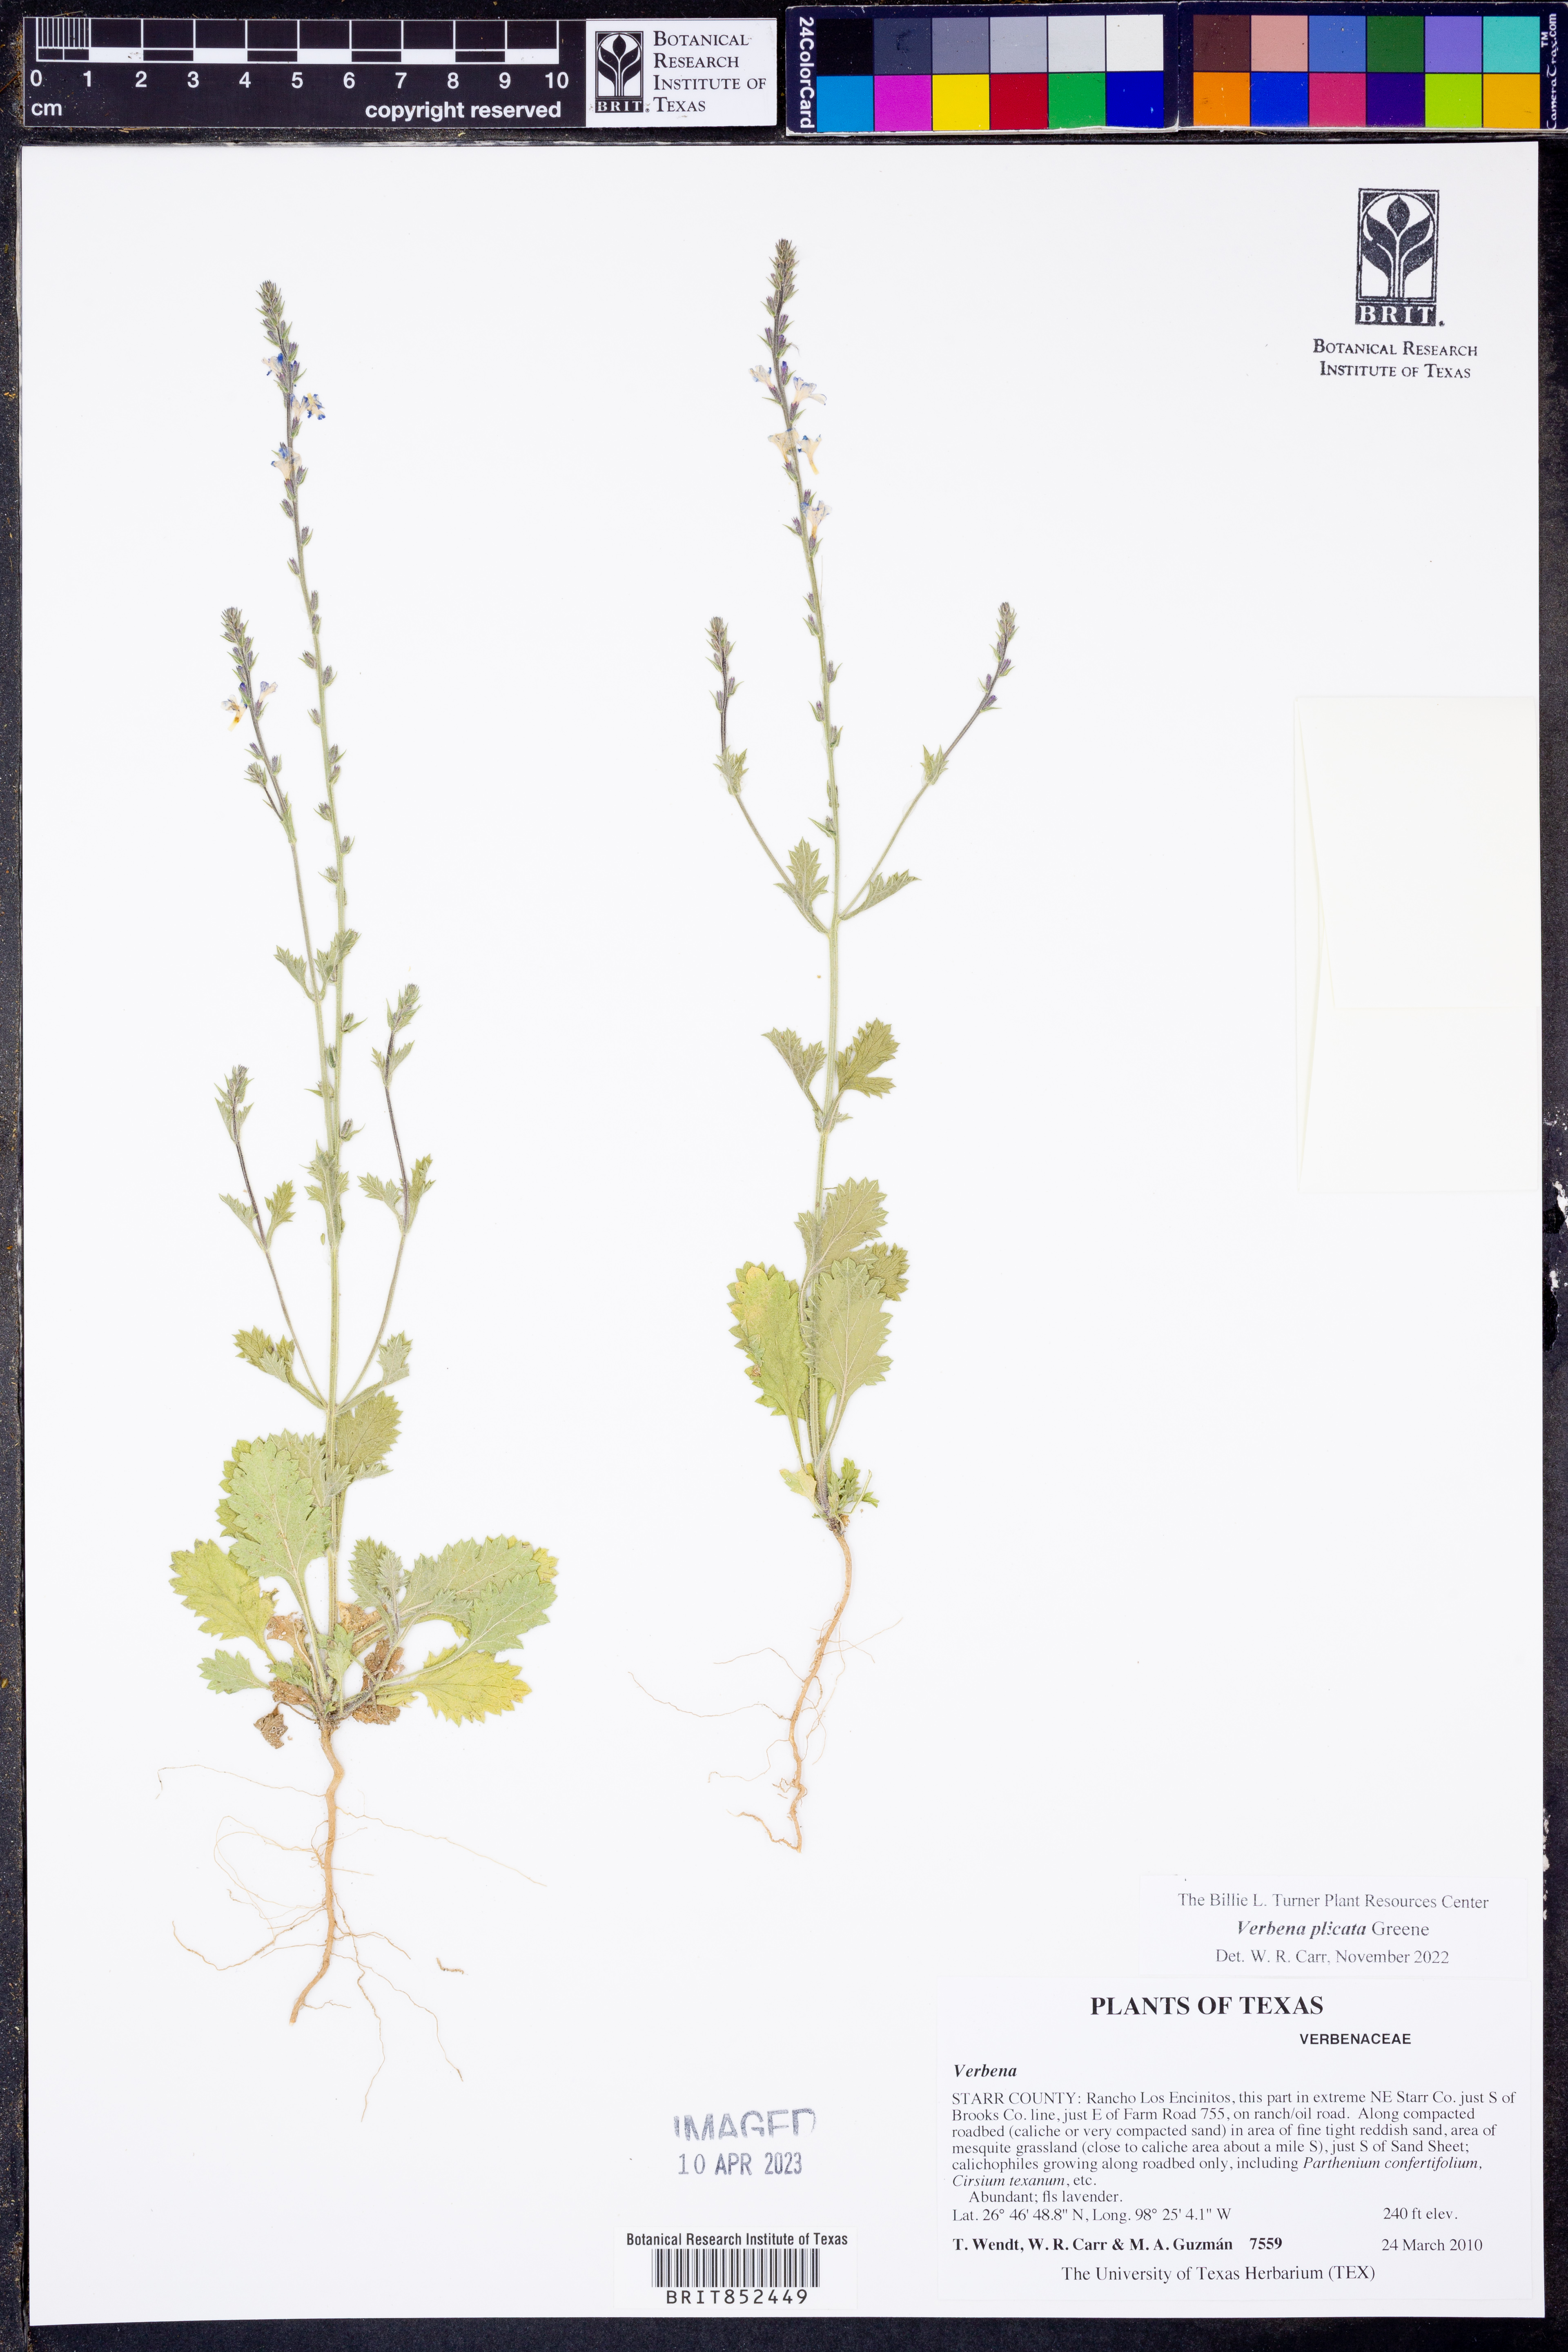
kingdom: Plantae
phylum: Tracheophyta
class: Magnoliopsida
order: Lamiales
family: Verbenaceae
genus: Verbena
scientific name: Verbena plicata
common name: Fan-leaf vervain
